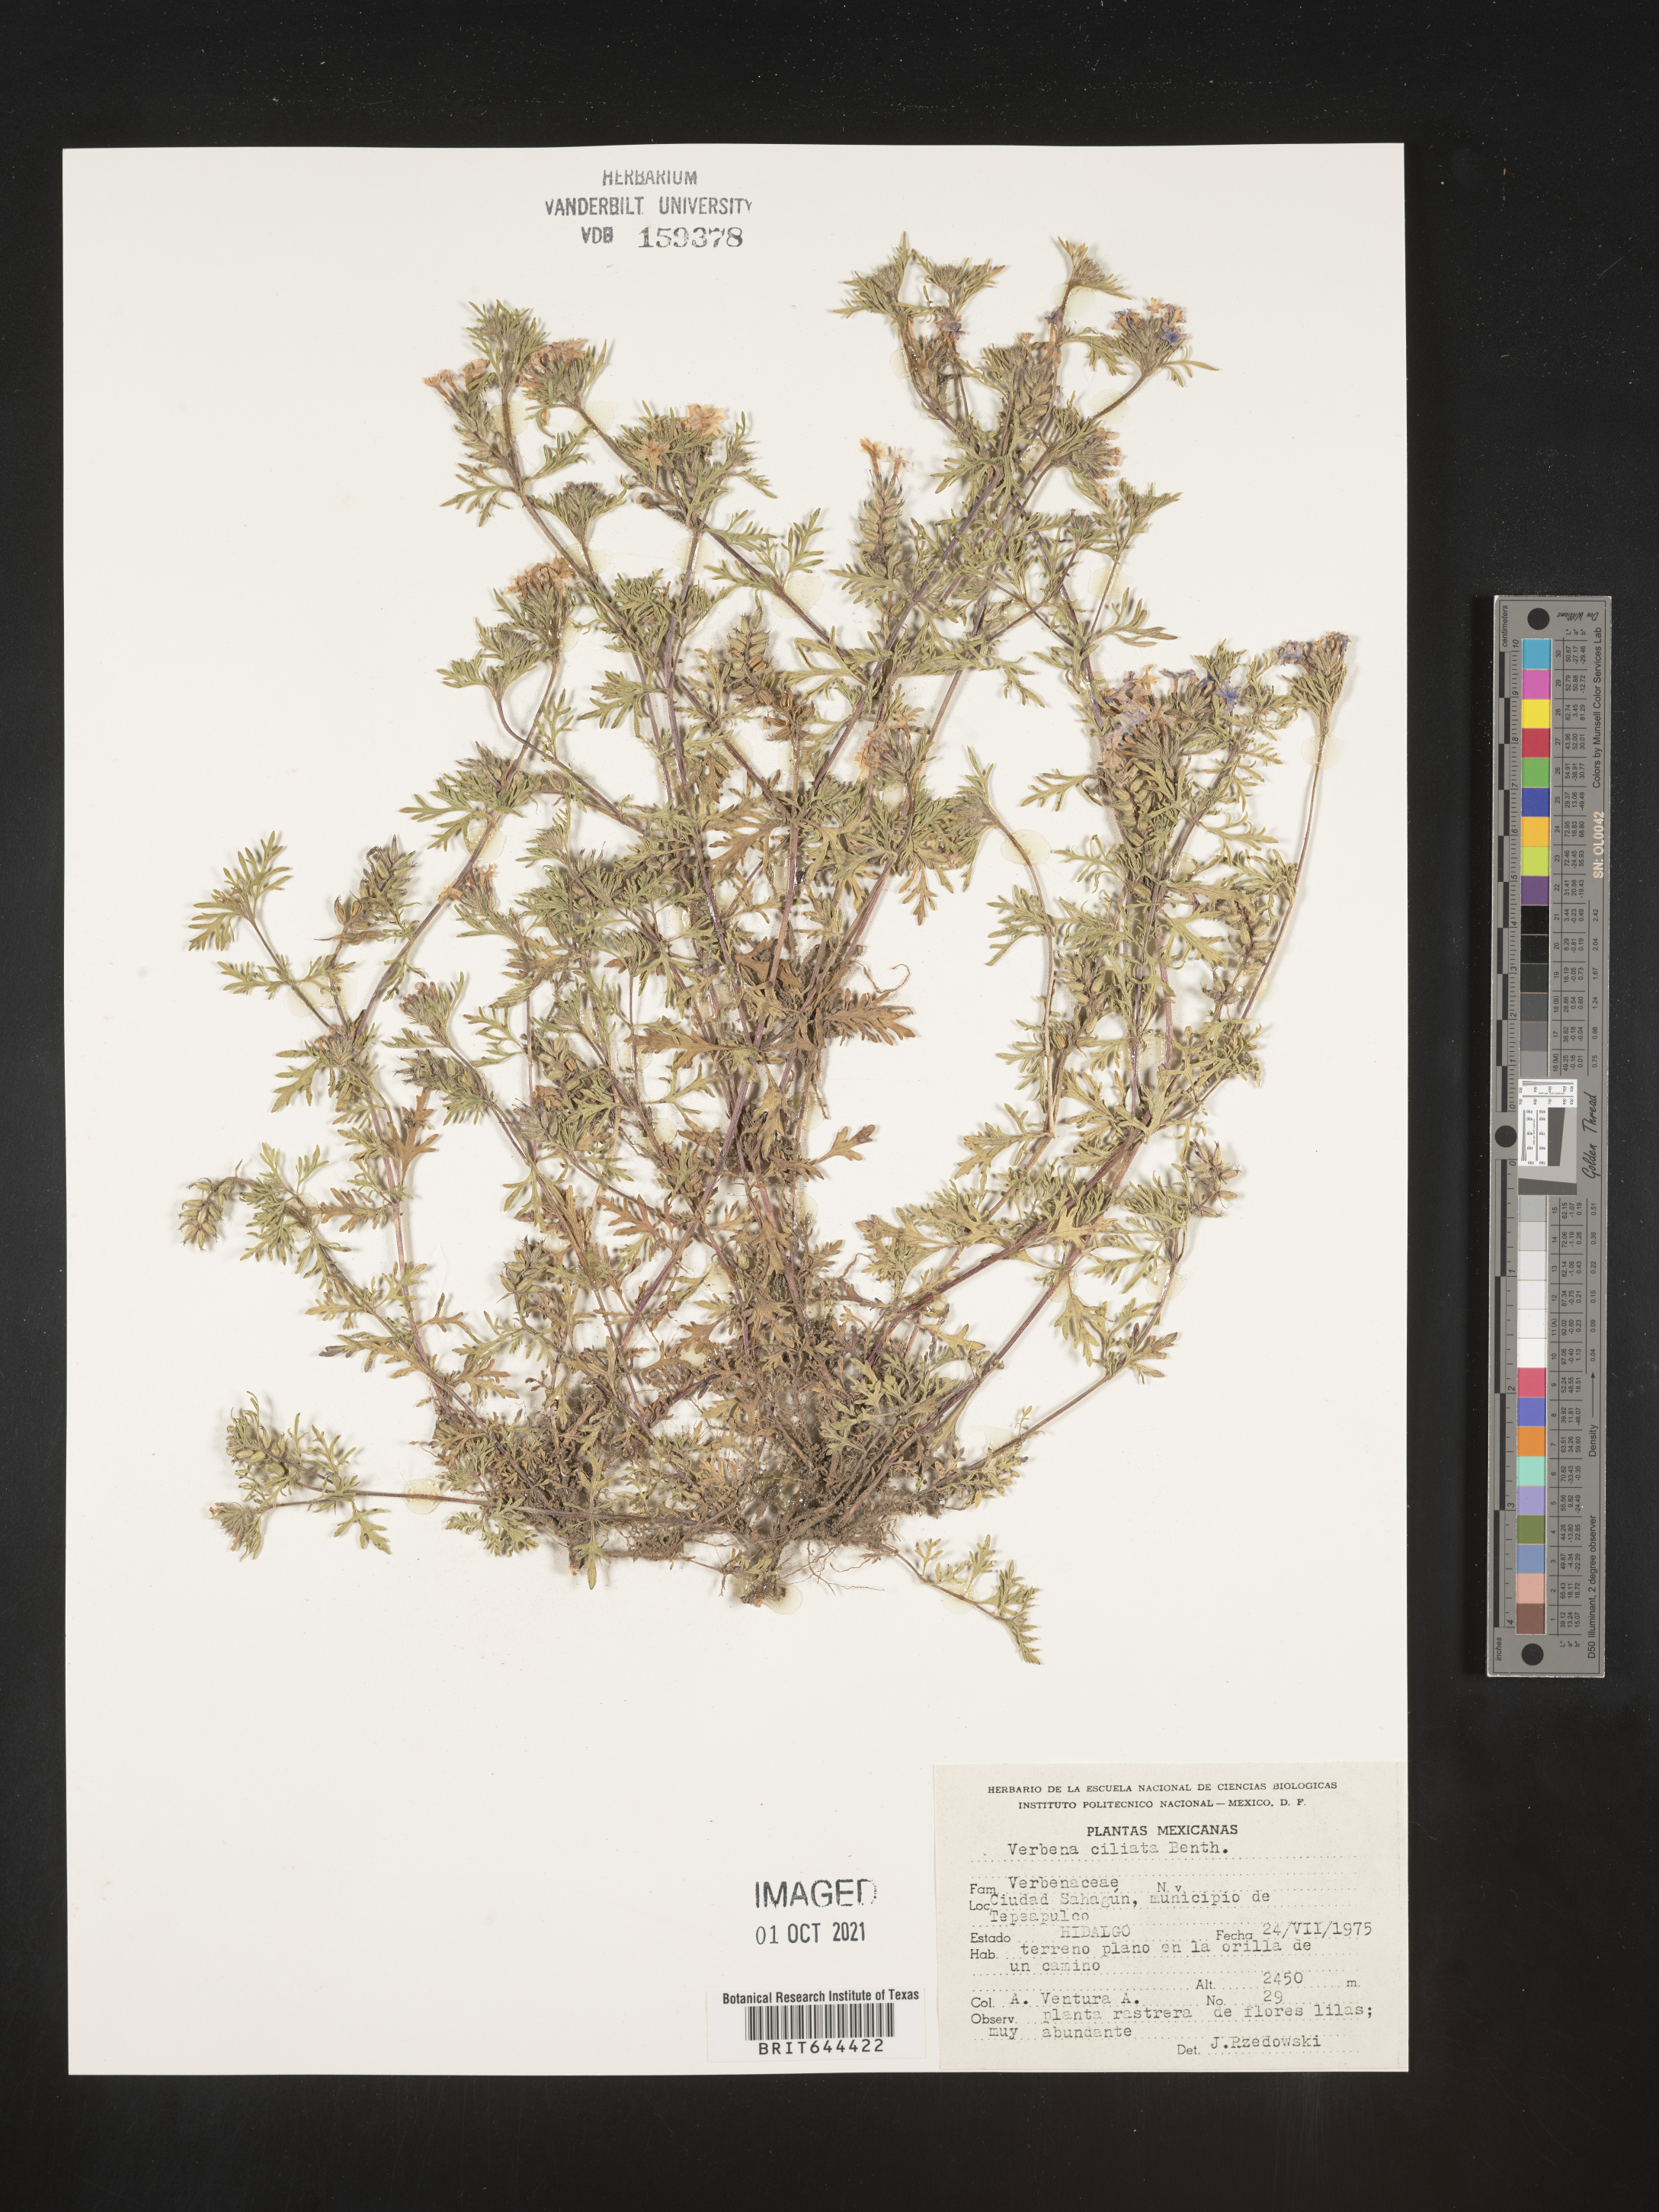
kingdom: Plantae
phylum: Tracheophyta
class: Magnoliopsida
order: Lamiales
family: Verbenaceae
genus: Verbena
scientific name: Verbena
